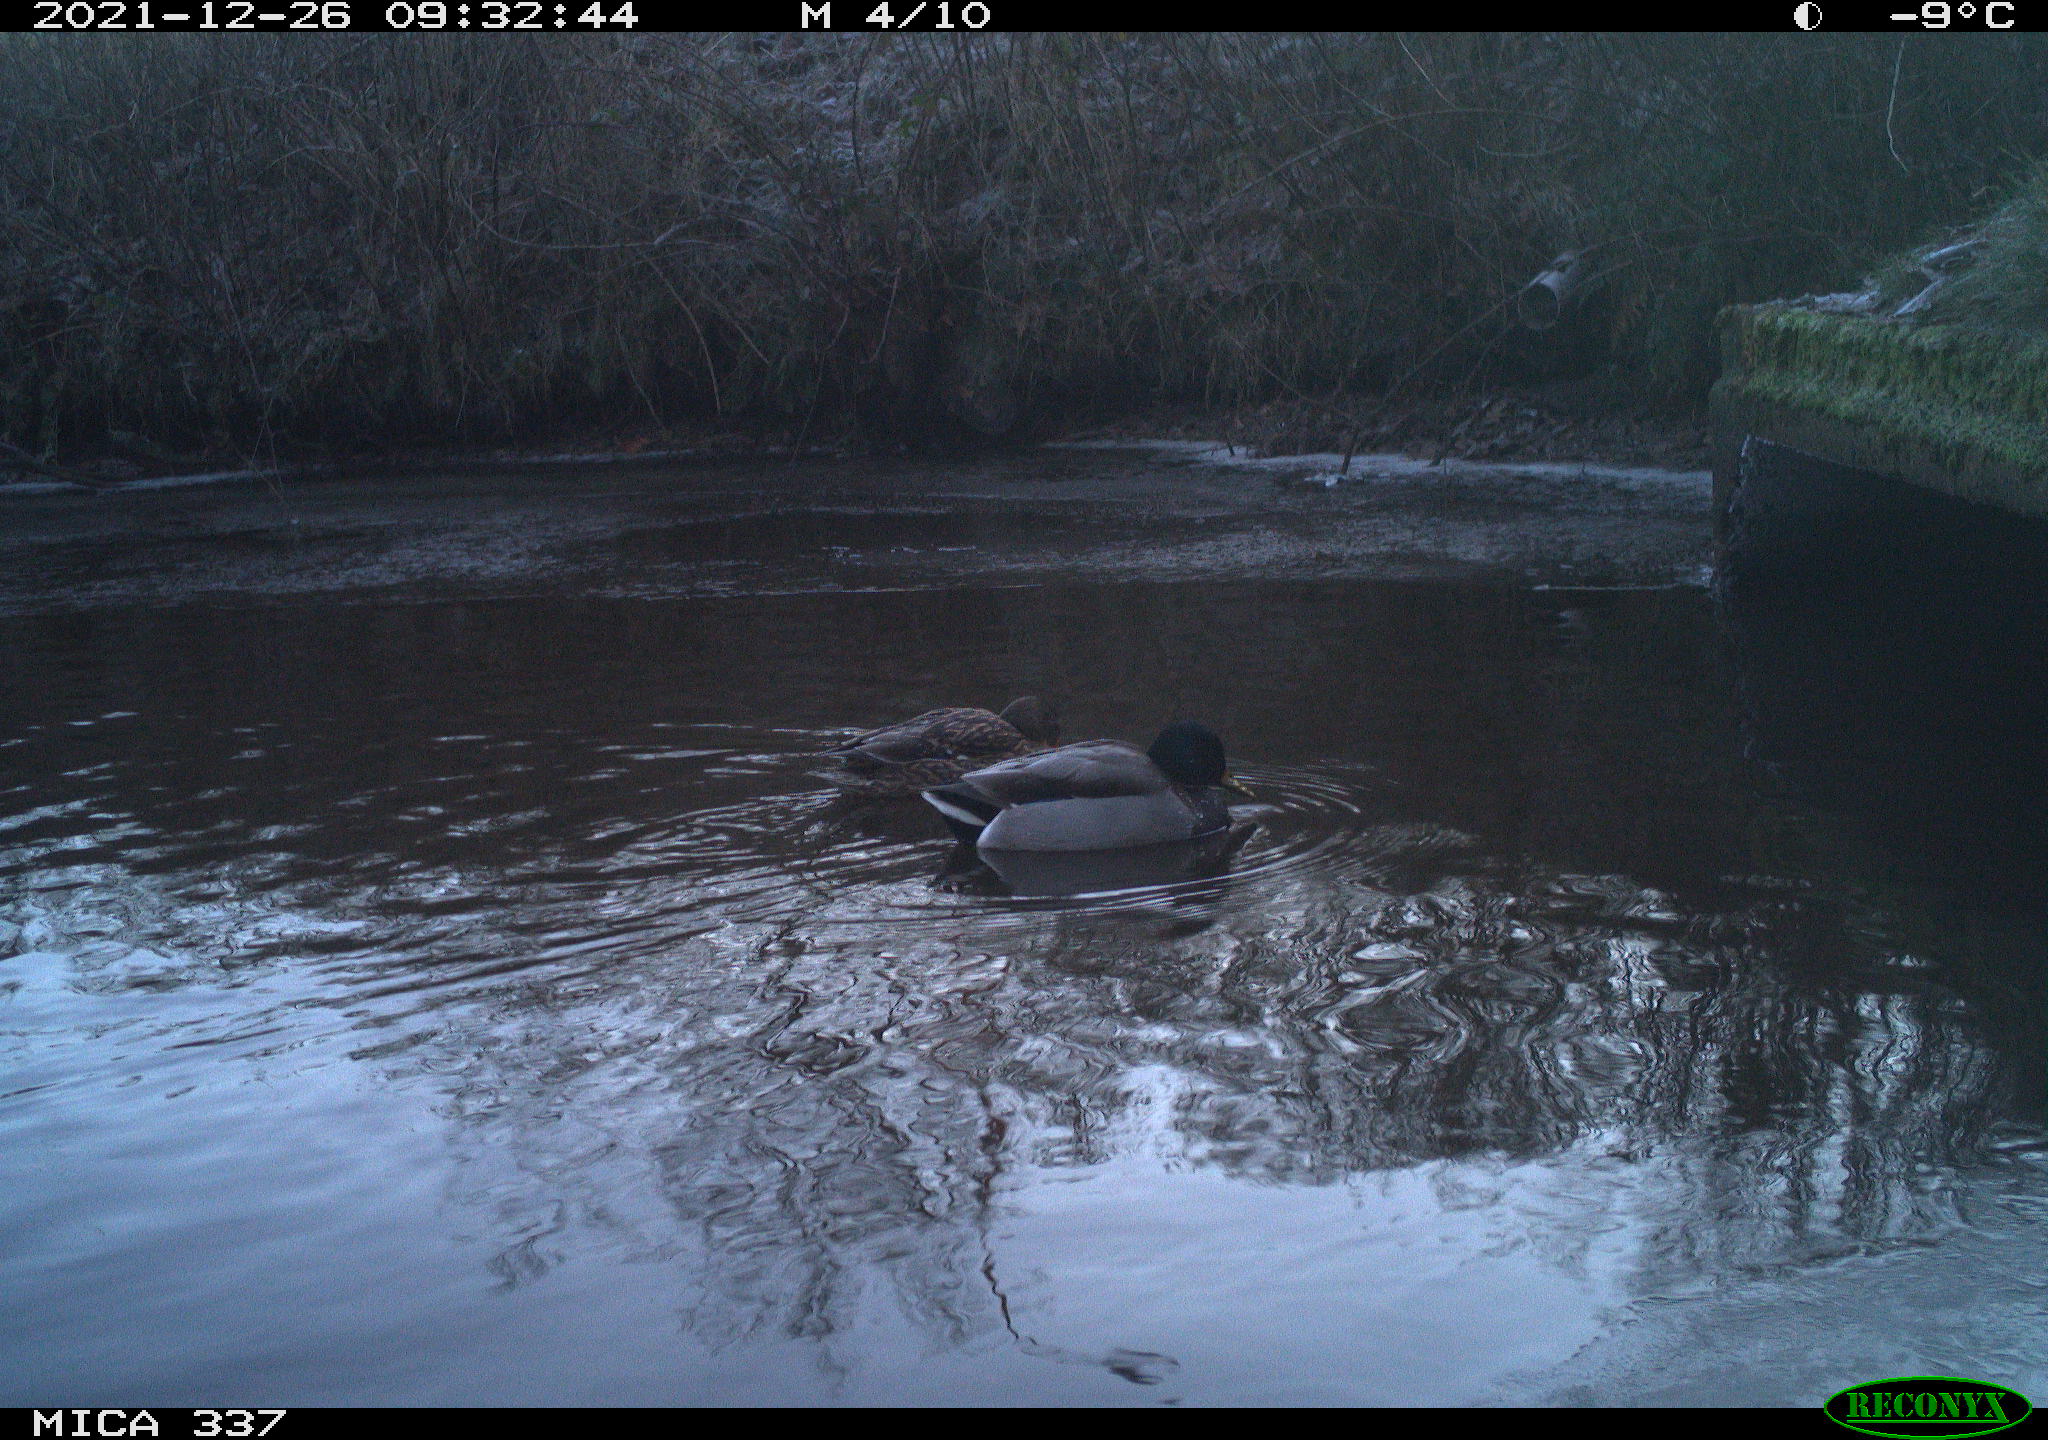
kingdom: Animalia
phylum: Chordata
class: Aves
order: Anseriformes
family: Anatidae
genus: Anas
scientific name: Anas platyrhynchos
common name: Mallard
